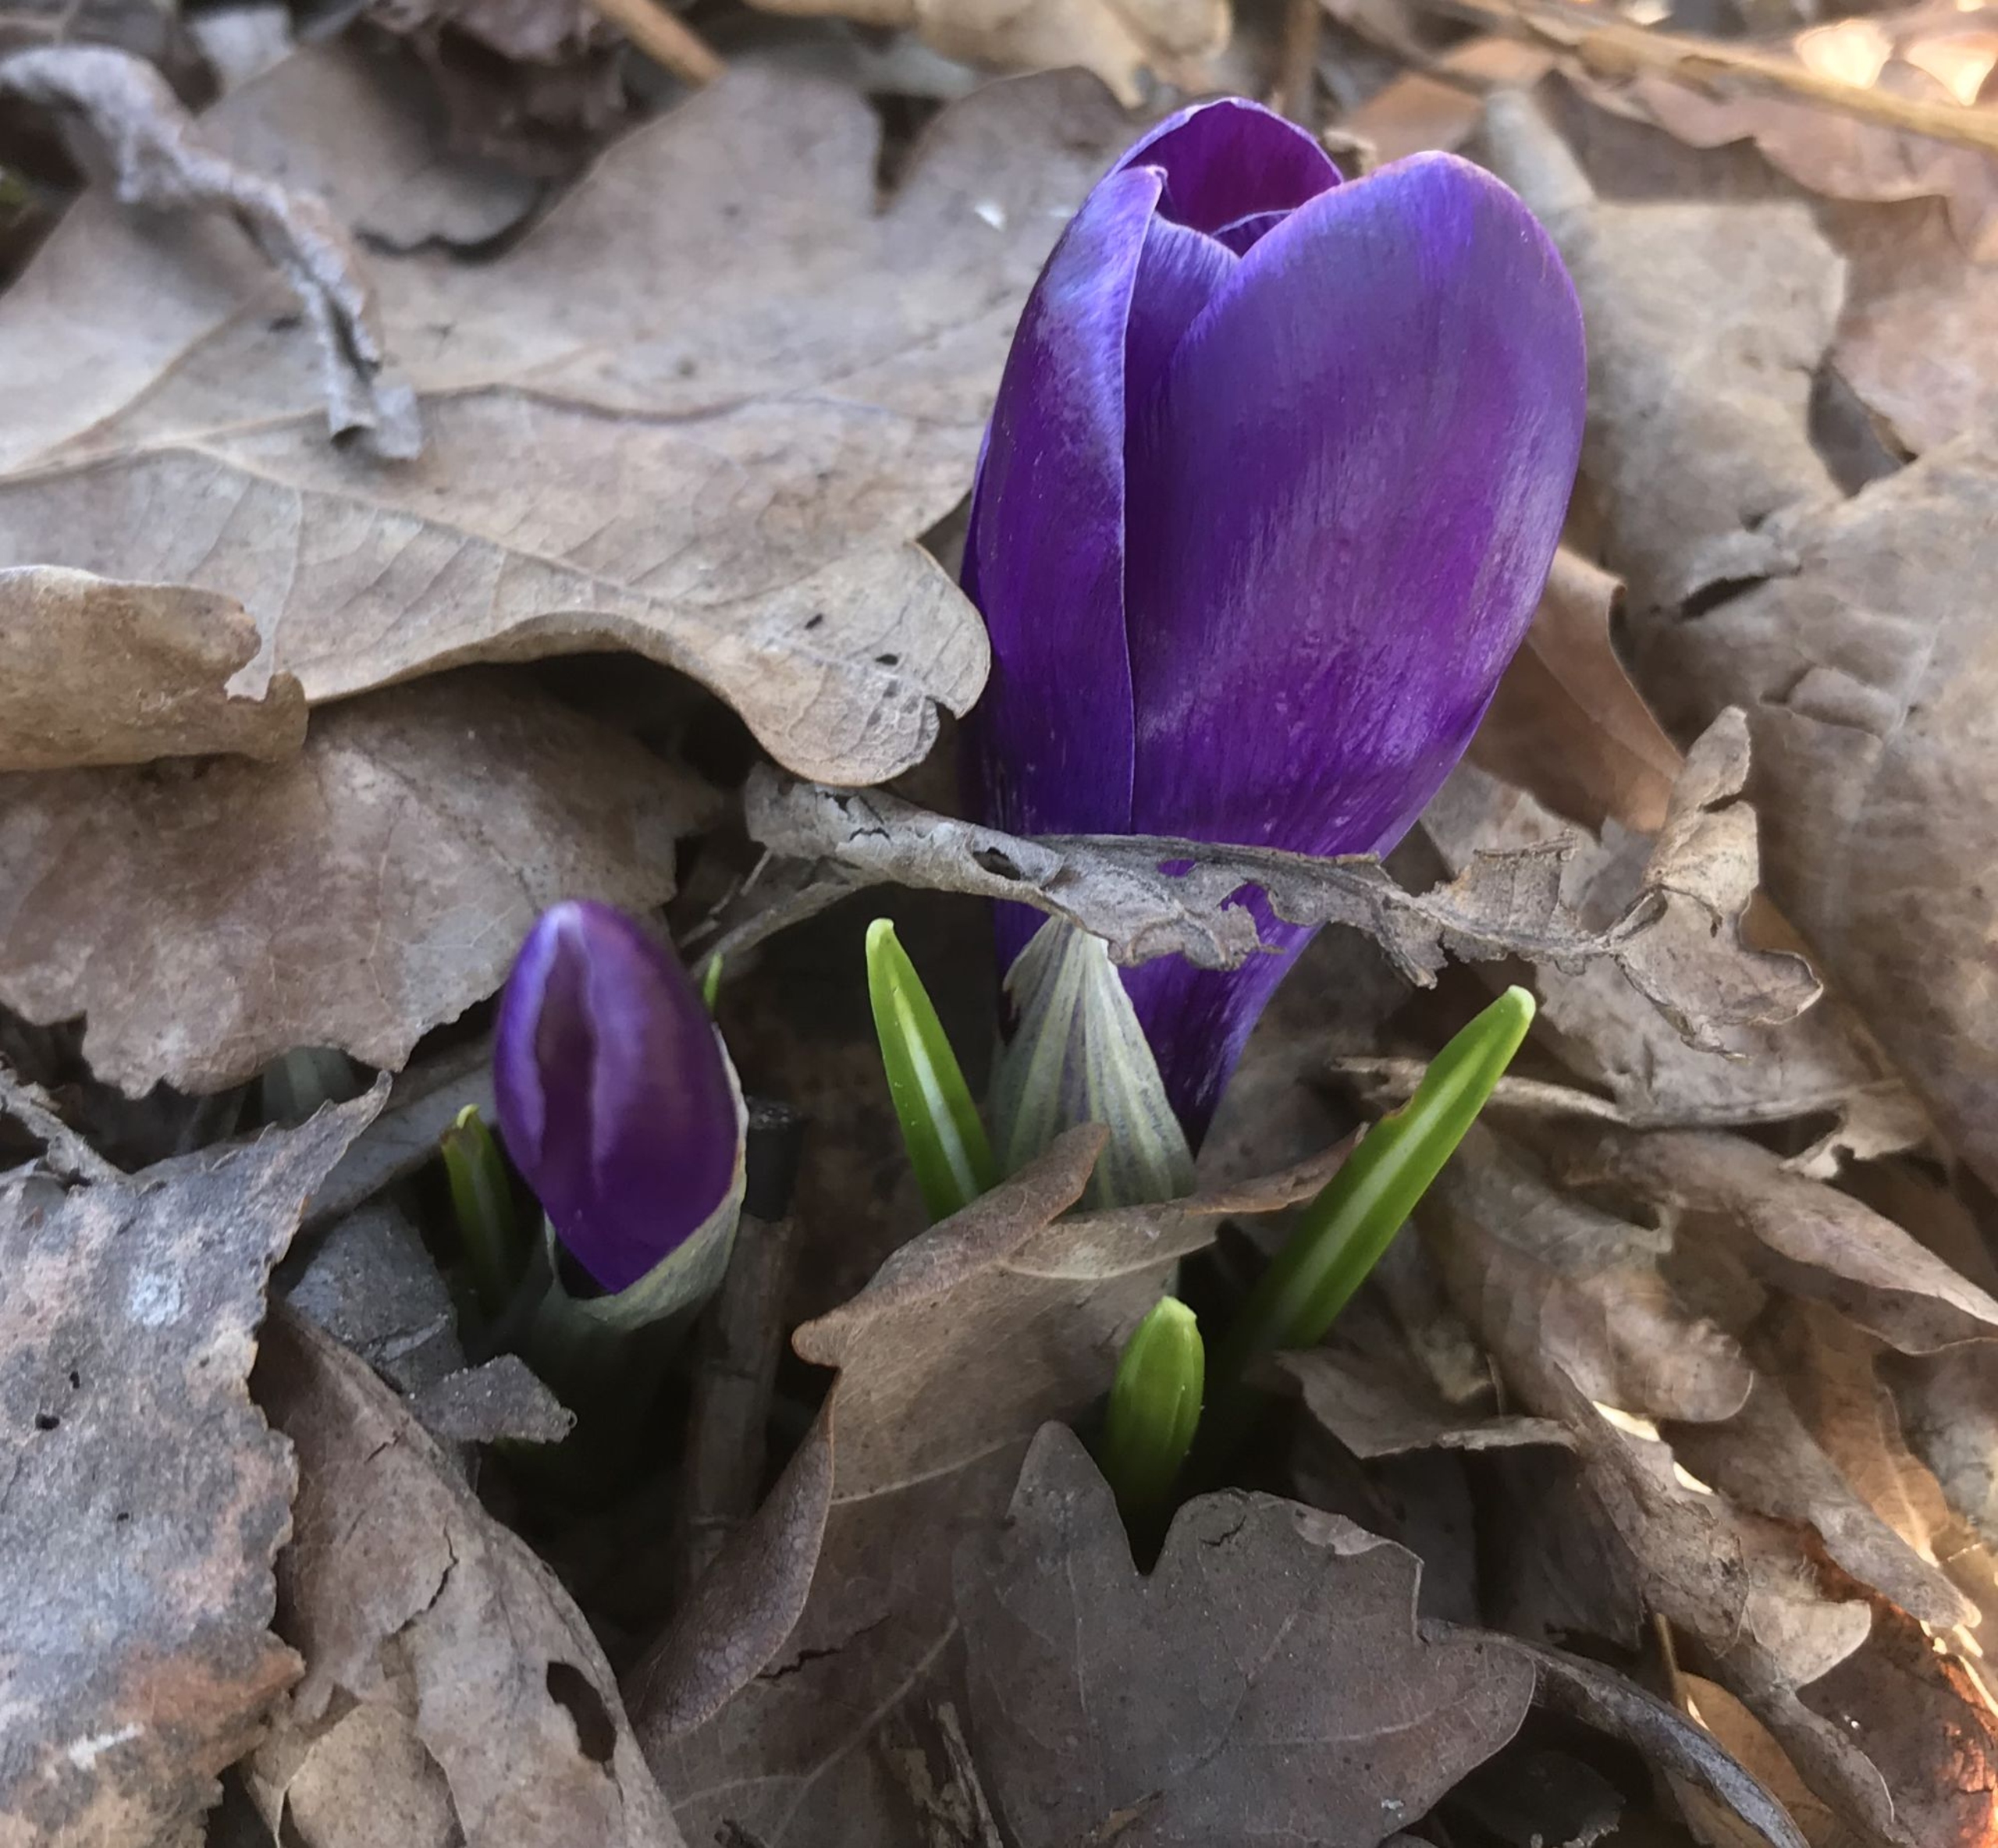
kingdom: Plantae
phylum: Tracheophyta
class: Liliopsida
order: Asparagales
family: Iridaceae
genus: Crocus
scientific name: Crocus vernus
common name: Vår-krokus
